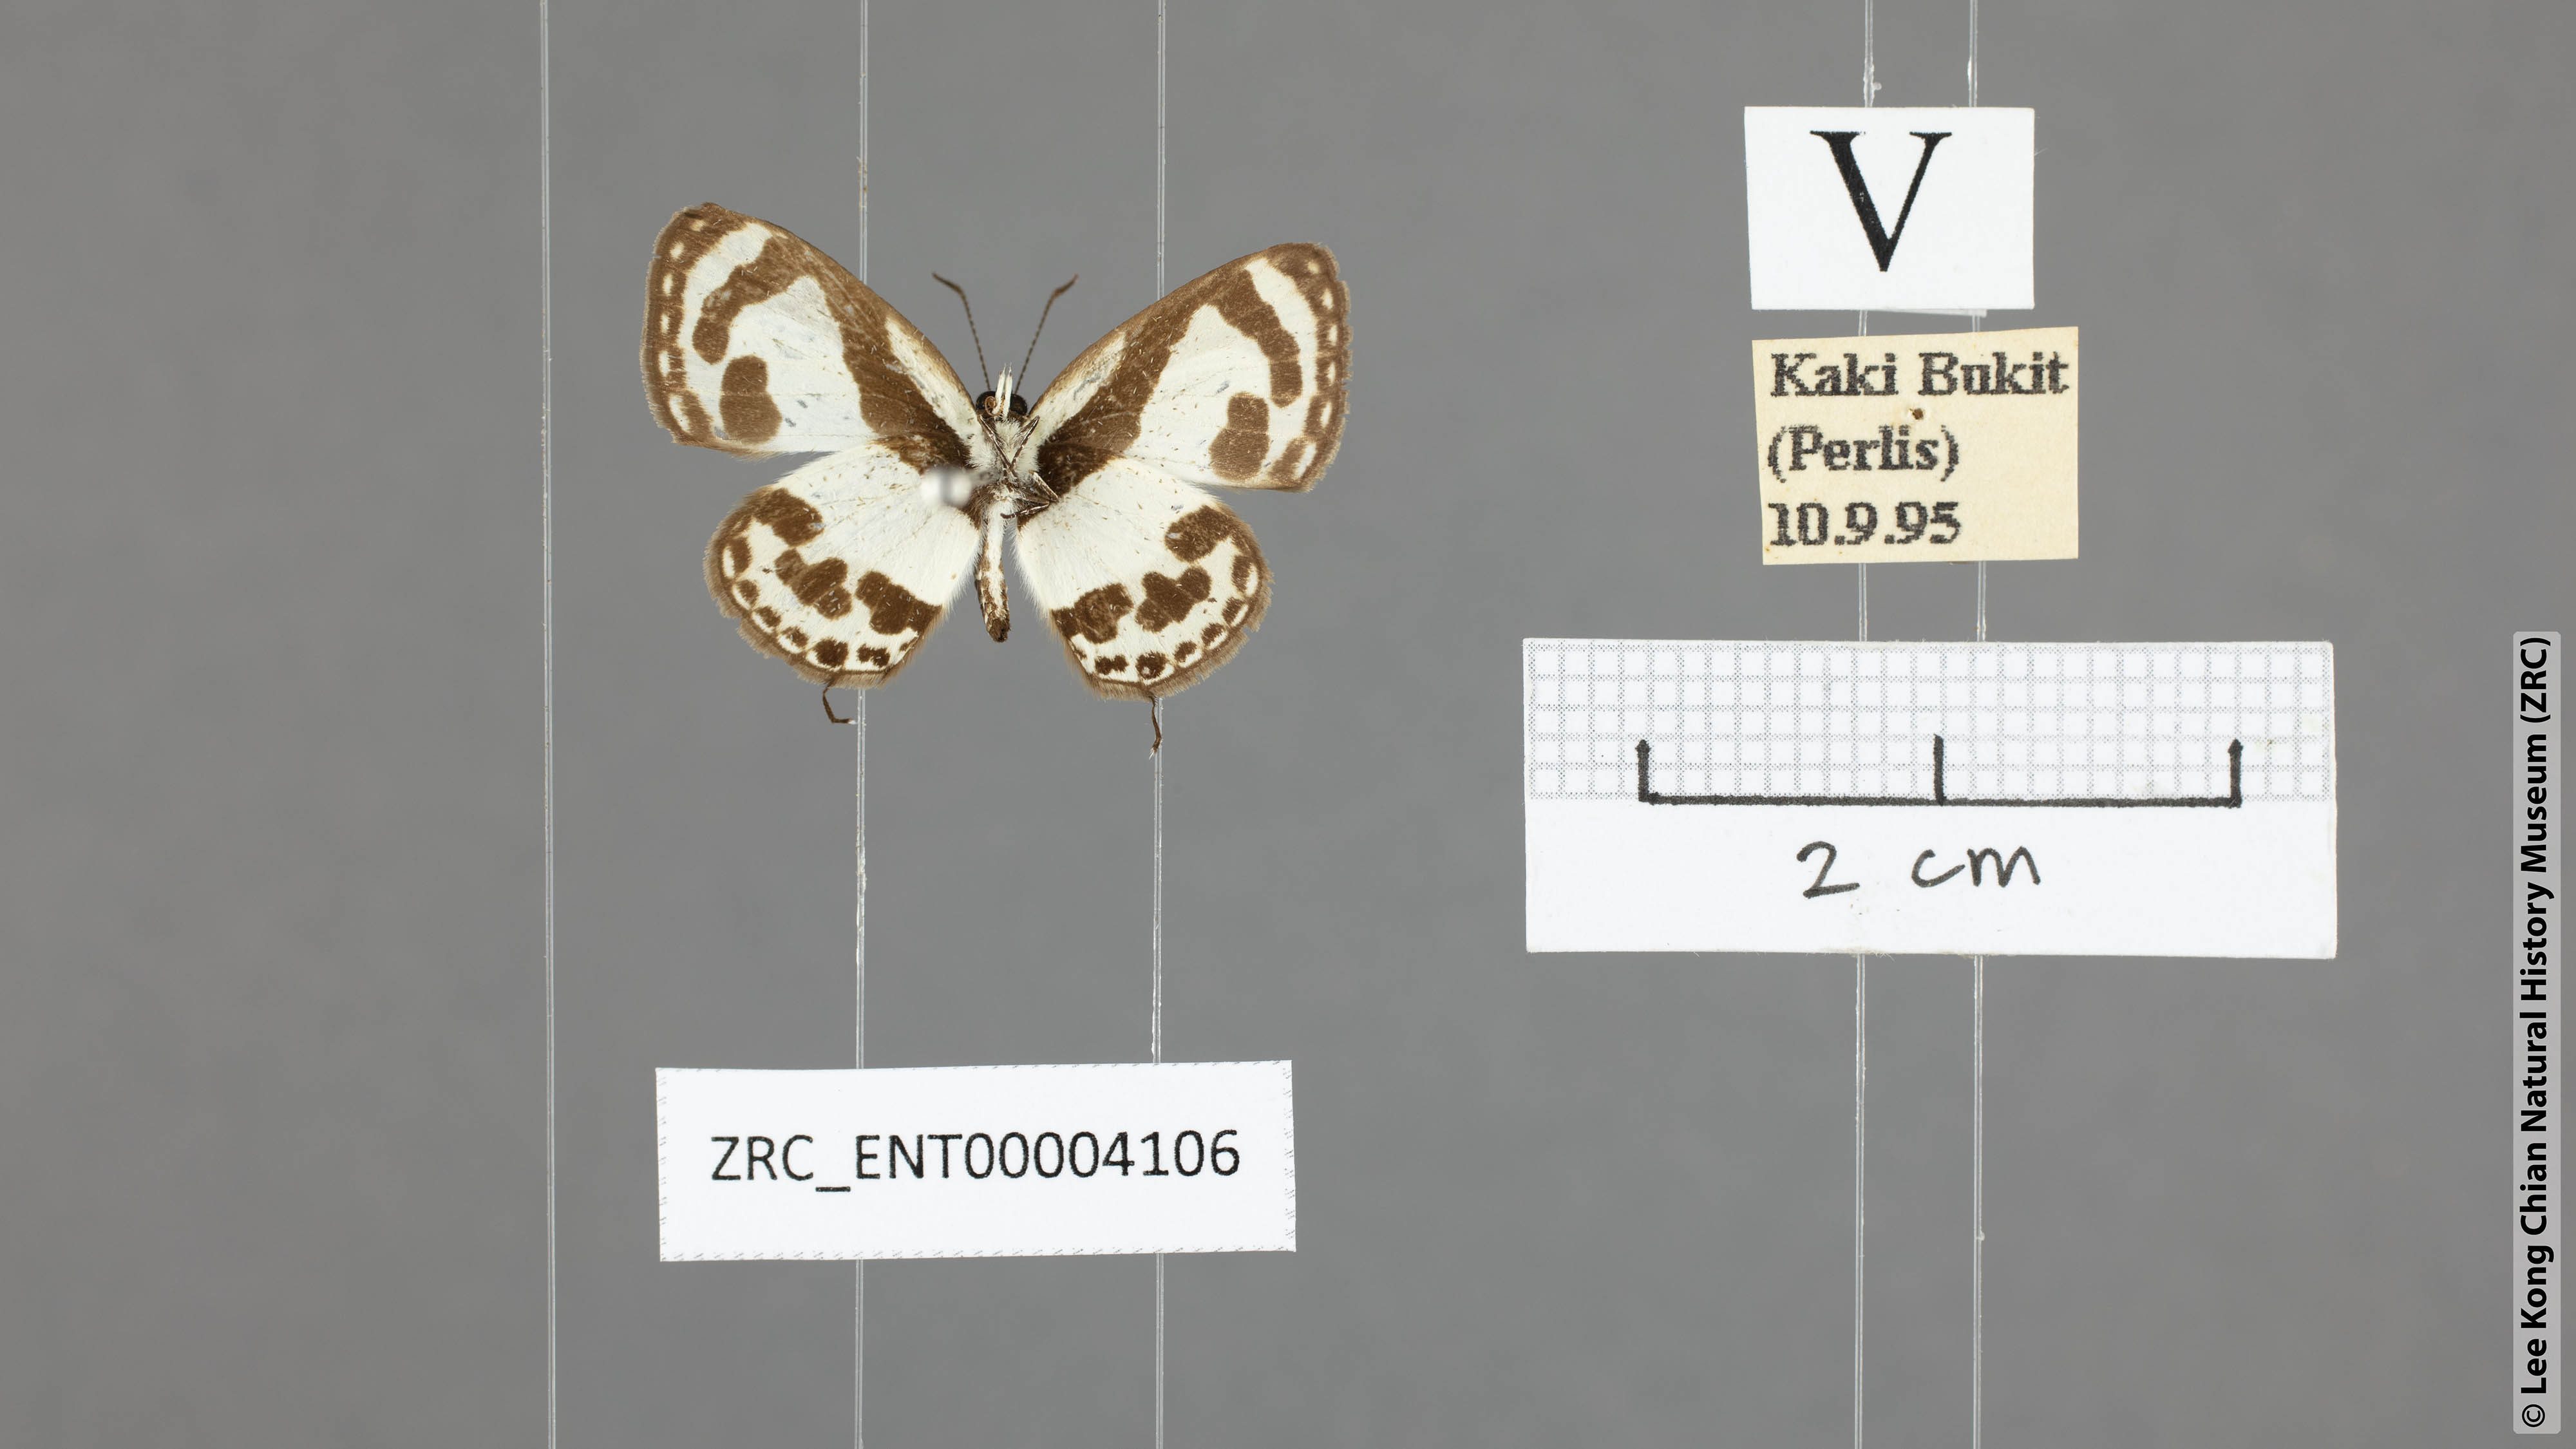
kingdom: Animalia
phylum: Arthropoda
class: Insecta
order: Lepidoptera
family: Lycaenidae
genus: Caleta
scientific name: Caleta roxus
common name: Straight pierrot
